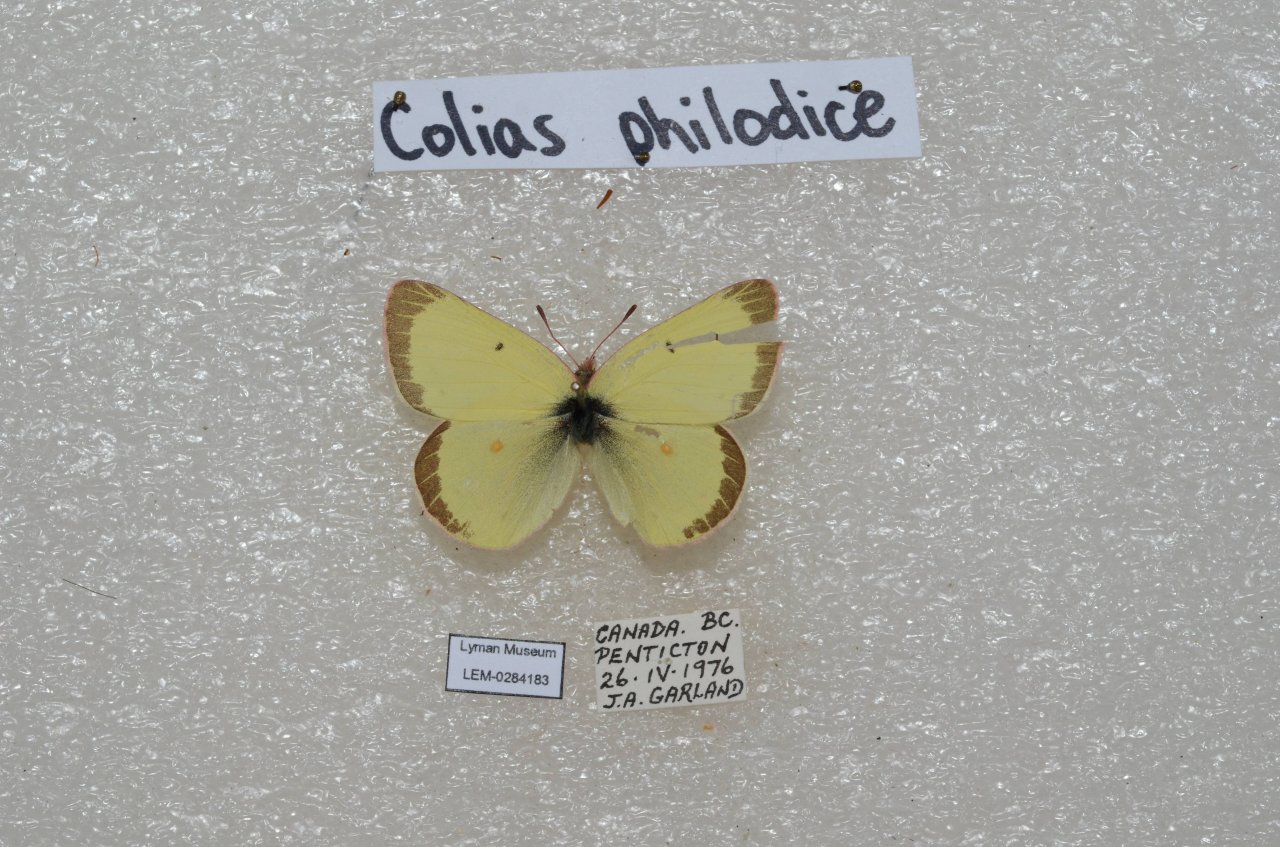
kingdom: Animalia
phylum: Arthropoda
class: Insecta
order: Lepidoptera
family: Pieridae
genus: Colias
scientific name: Colias philodice
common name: Clouded Sulphur
